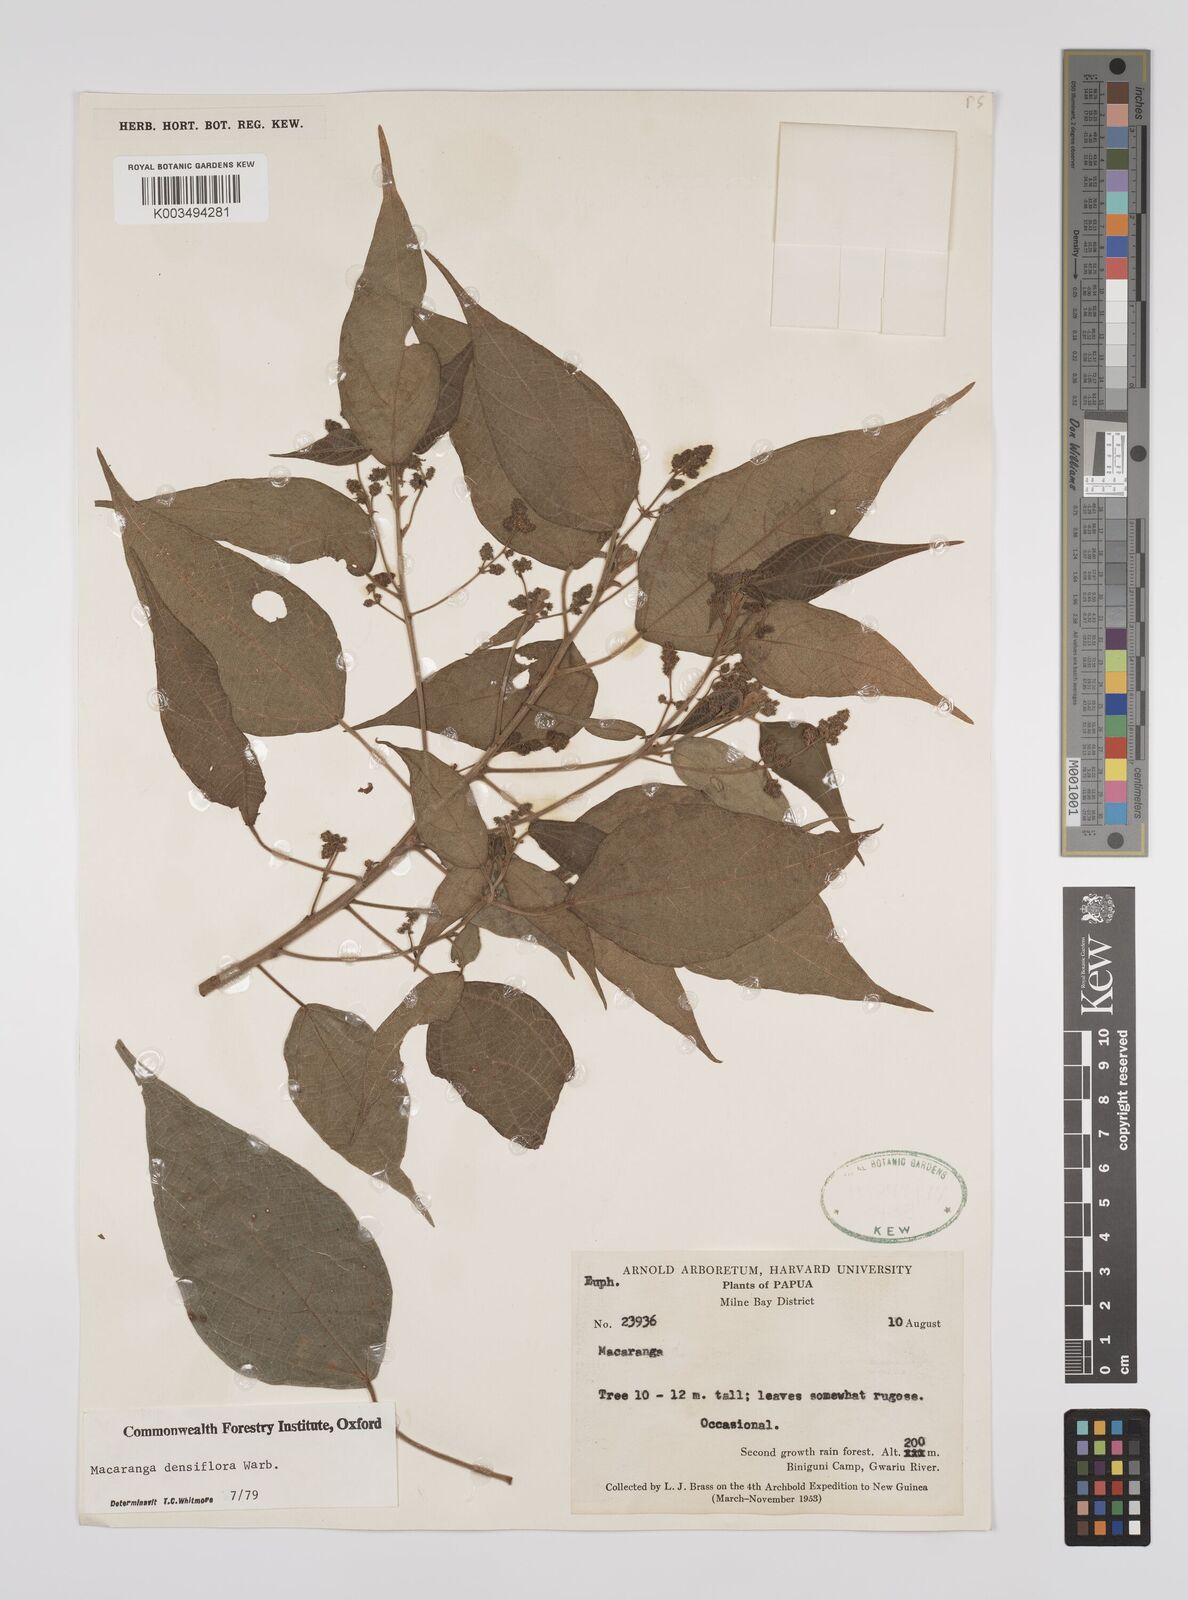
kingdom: Plantae
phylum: Tracheophyta
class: Magnoliopsida
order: Malpighiales
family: Euphorbiaceae
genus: Macaranga
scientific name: Macaranga densiflora
